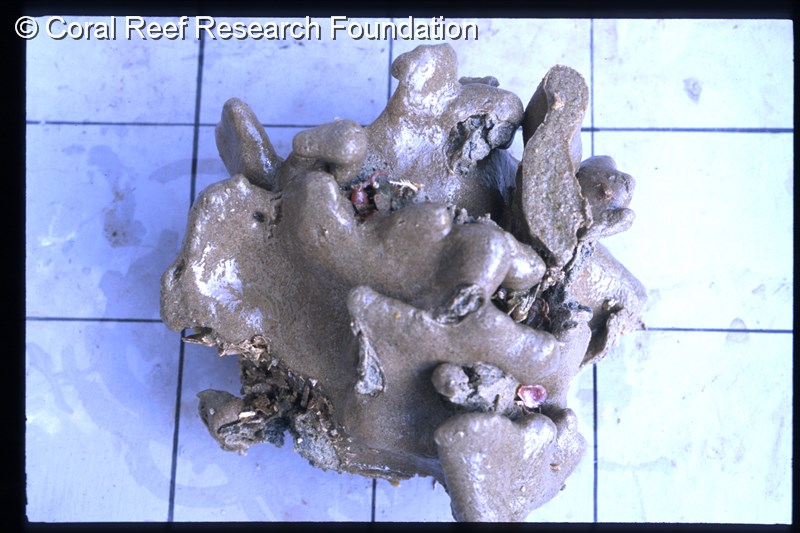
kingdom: Animalia
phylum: Chordata
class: Ascidiacea
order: Aplousobranchia
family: Polycitoridae
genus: Eudistoma
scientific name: Eudistoma
